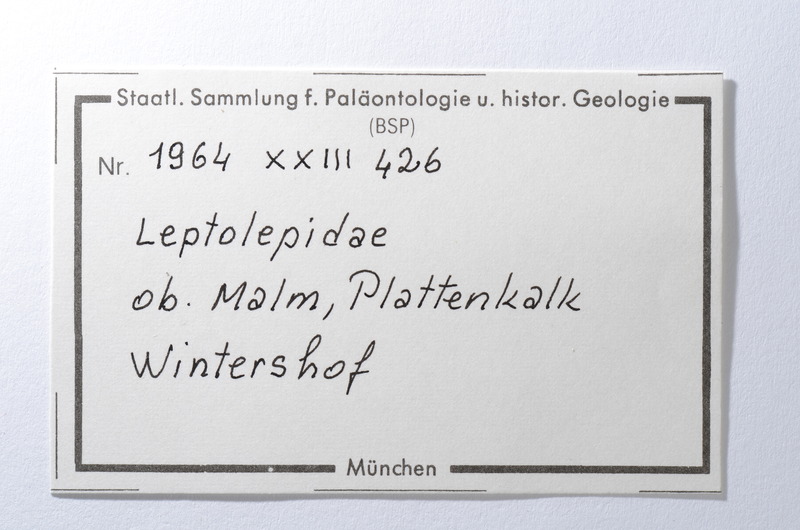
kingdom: Animalia
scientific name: Animalia
